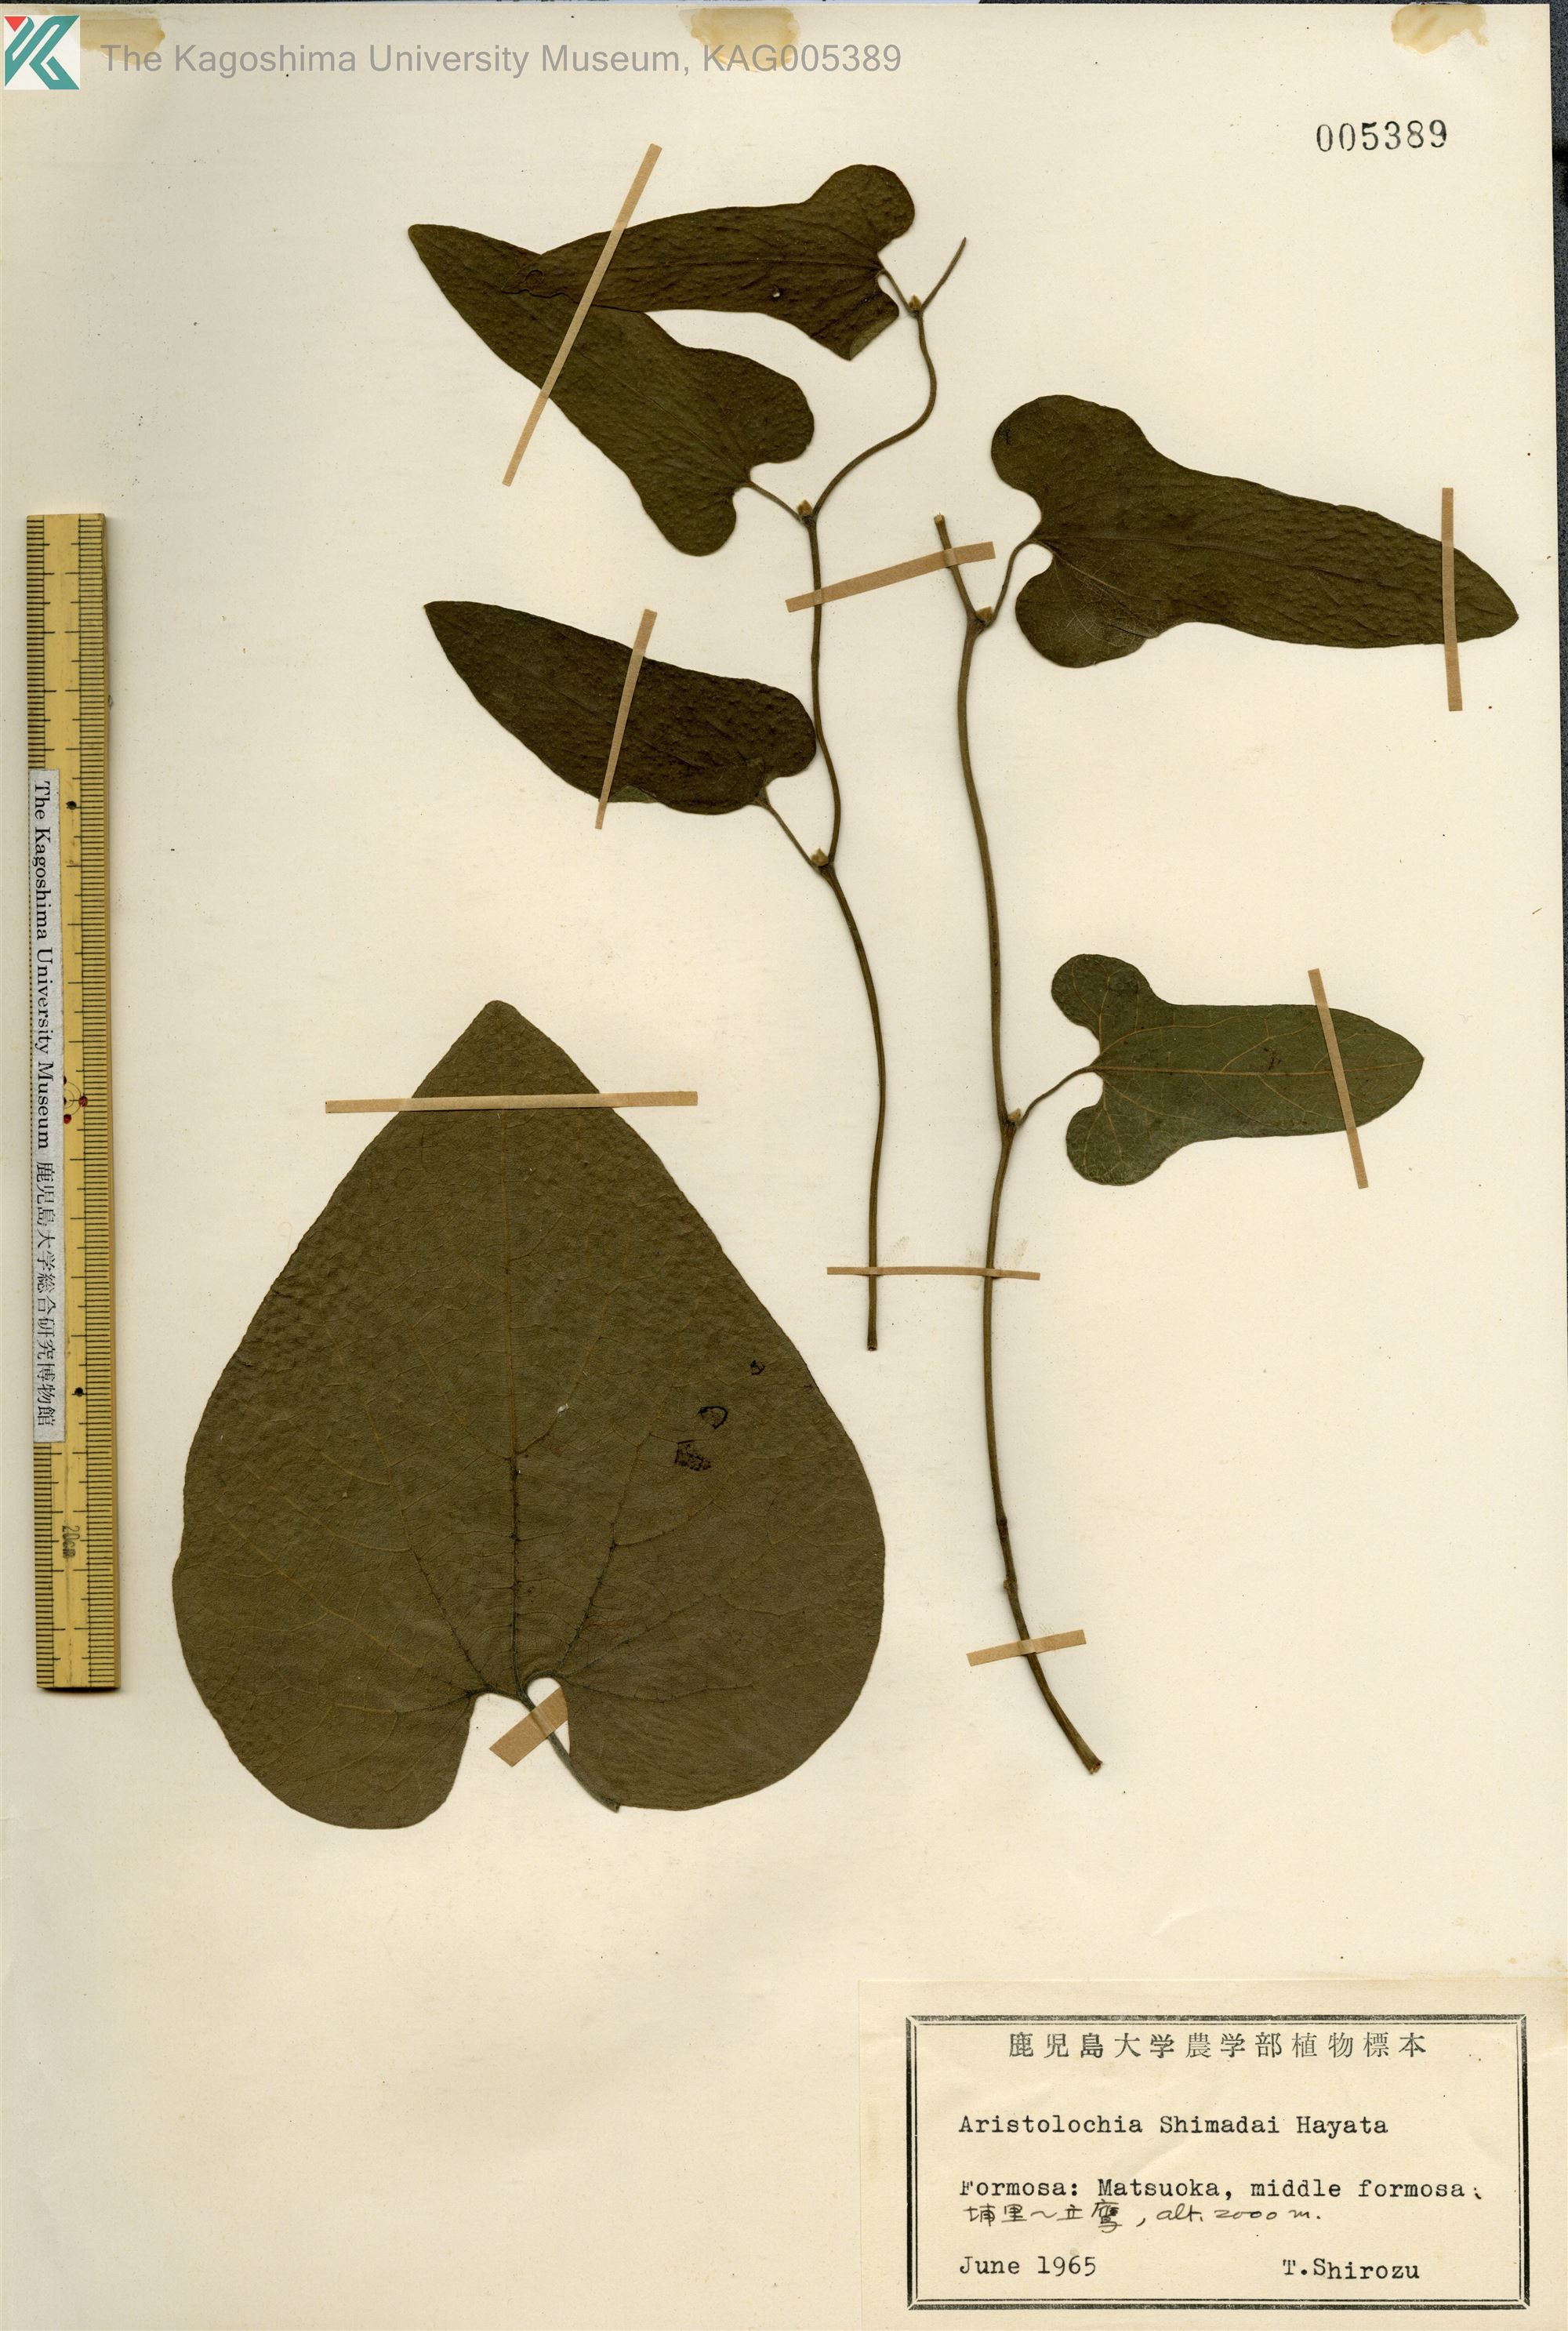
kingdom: Plantae
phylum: Tracheophyta
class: Magnoliopsida
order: Piperales
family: Aristolochiaceae
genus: Isotrema
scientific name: Isotrema kaempferi
